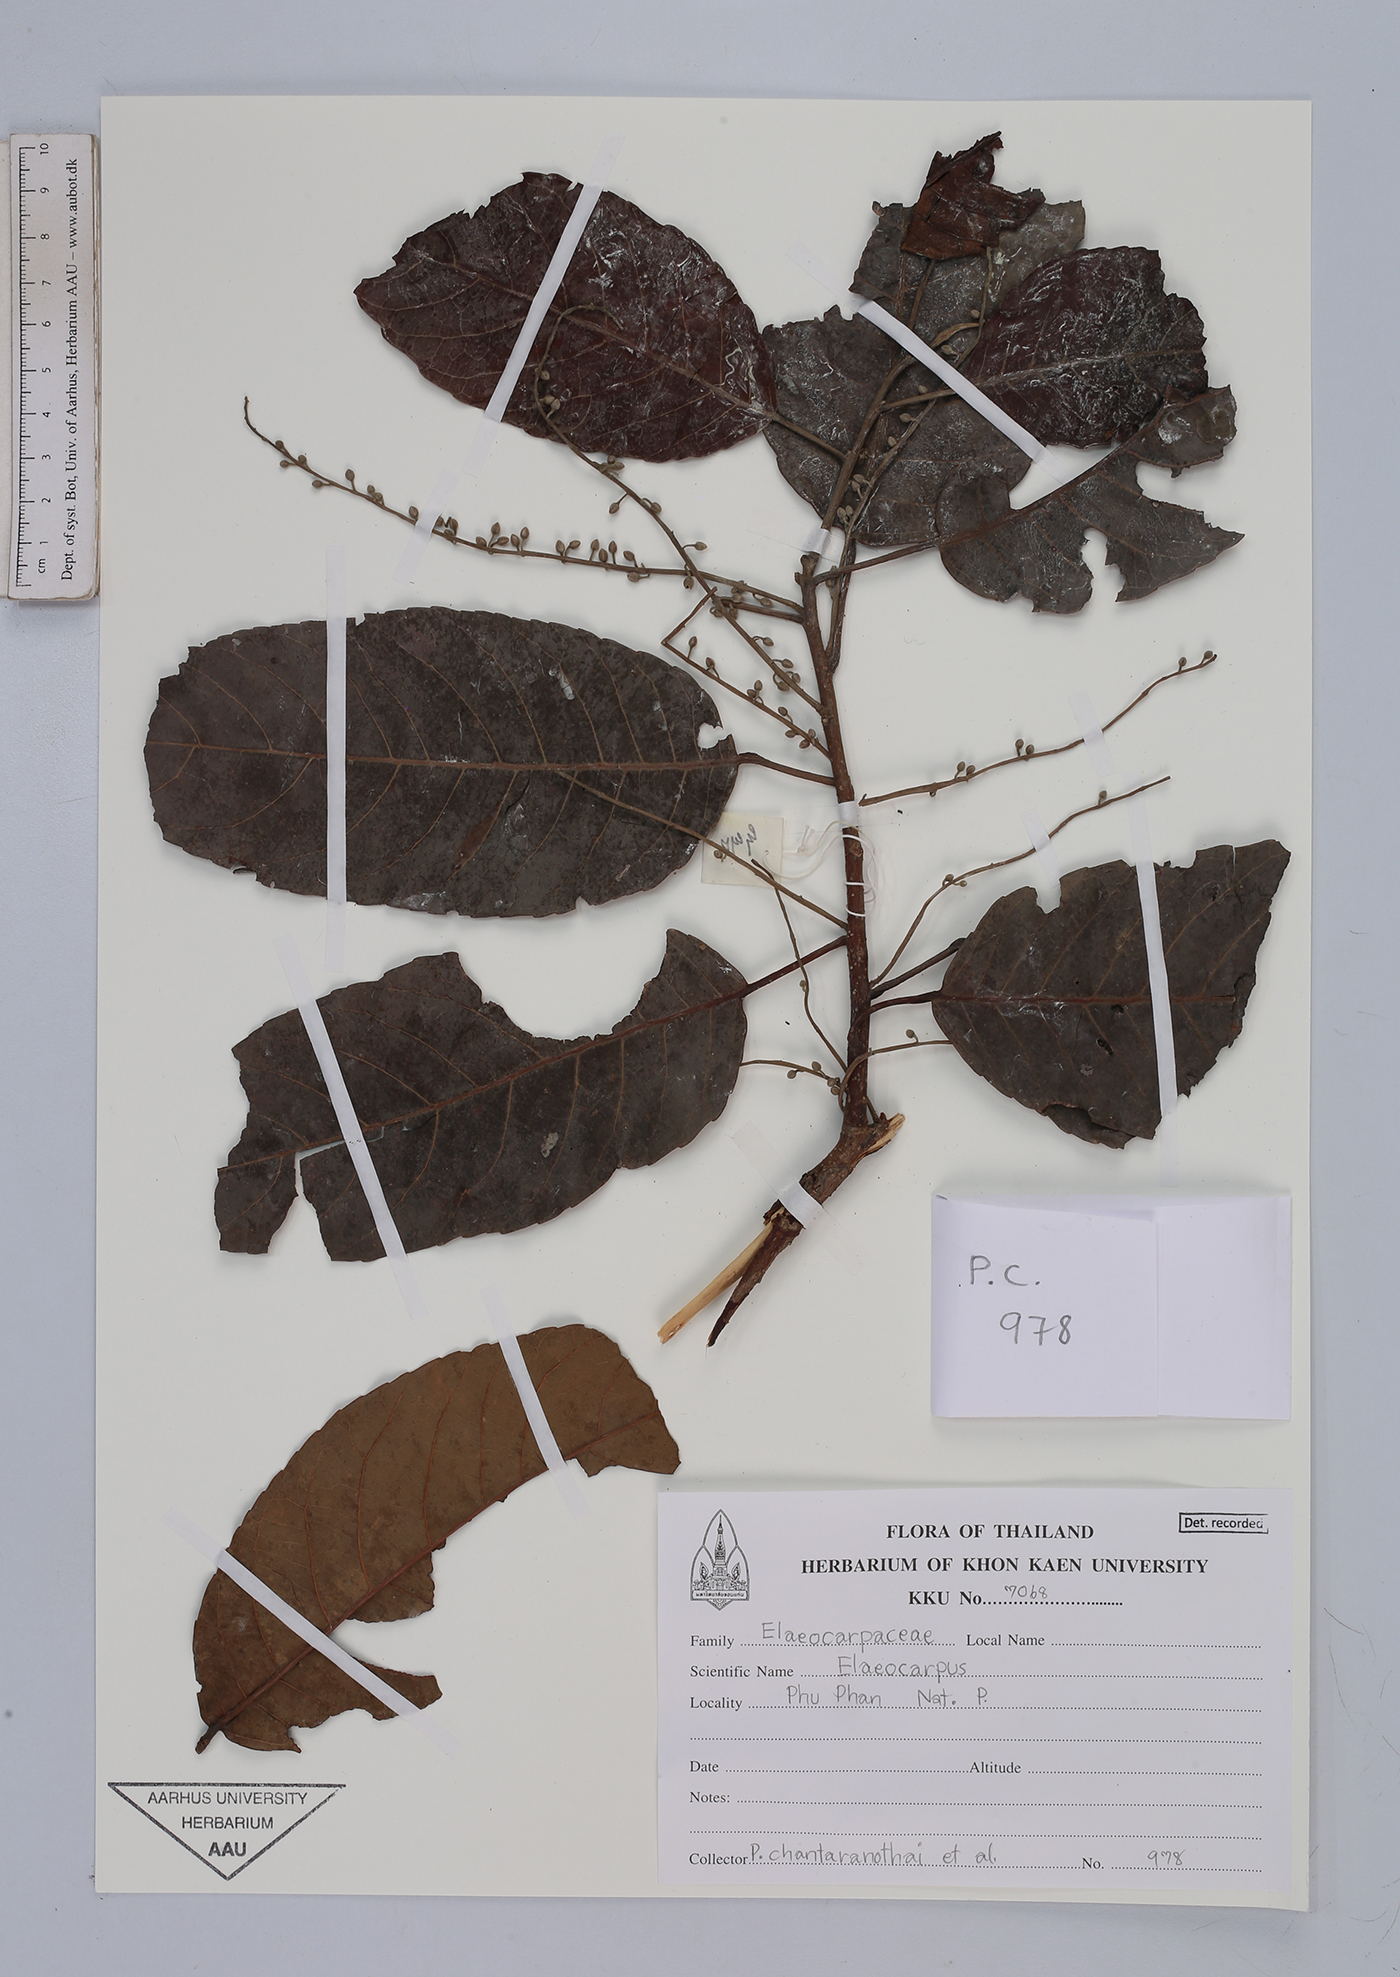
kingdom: Plantae
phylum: Tracheophyta
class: Magnoliopsida
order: Oxalidales
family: Elaeocarpaceae
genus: Elaeocarpus
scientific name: Elaeocarpus
